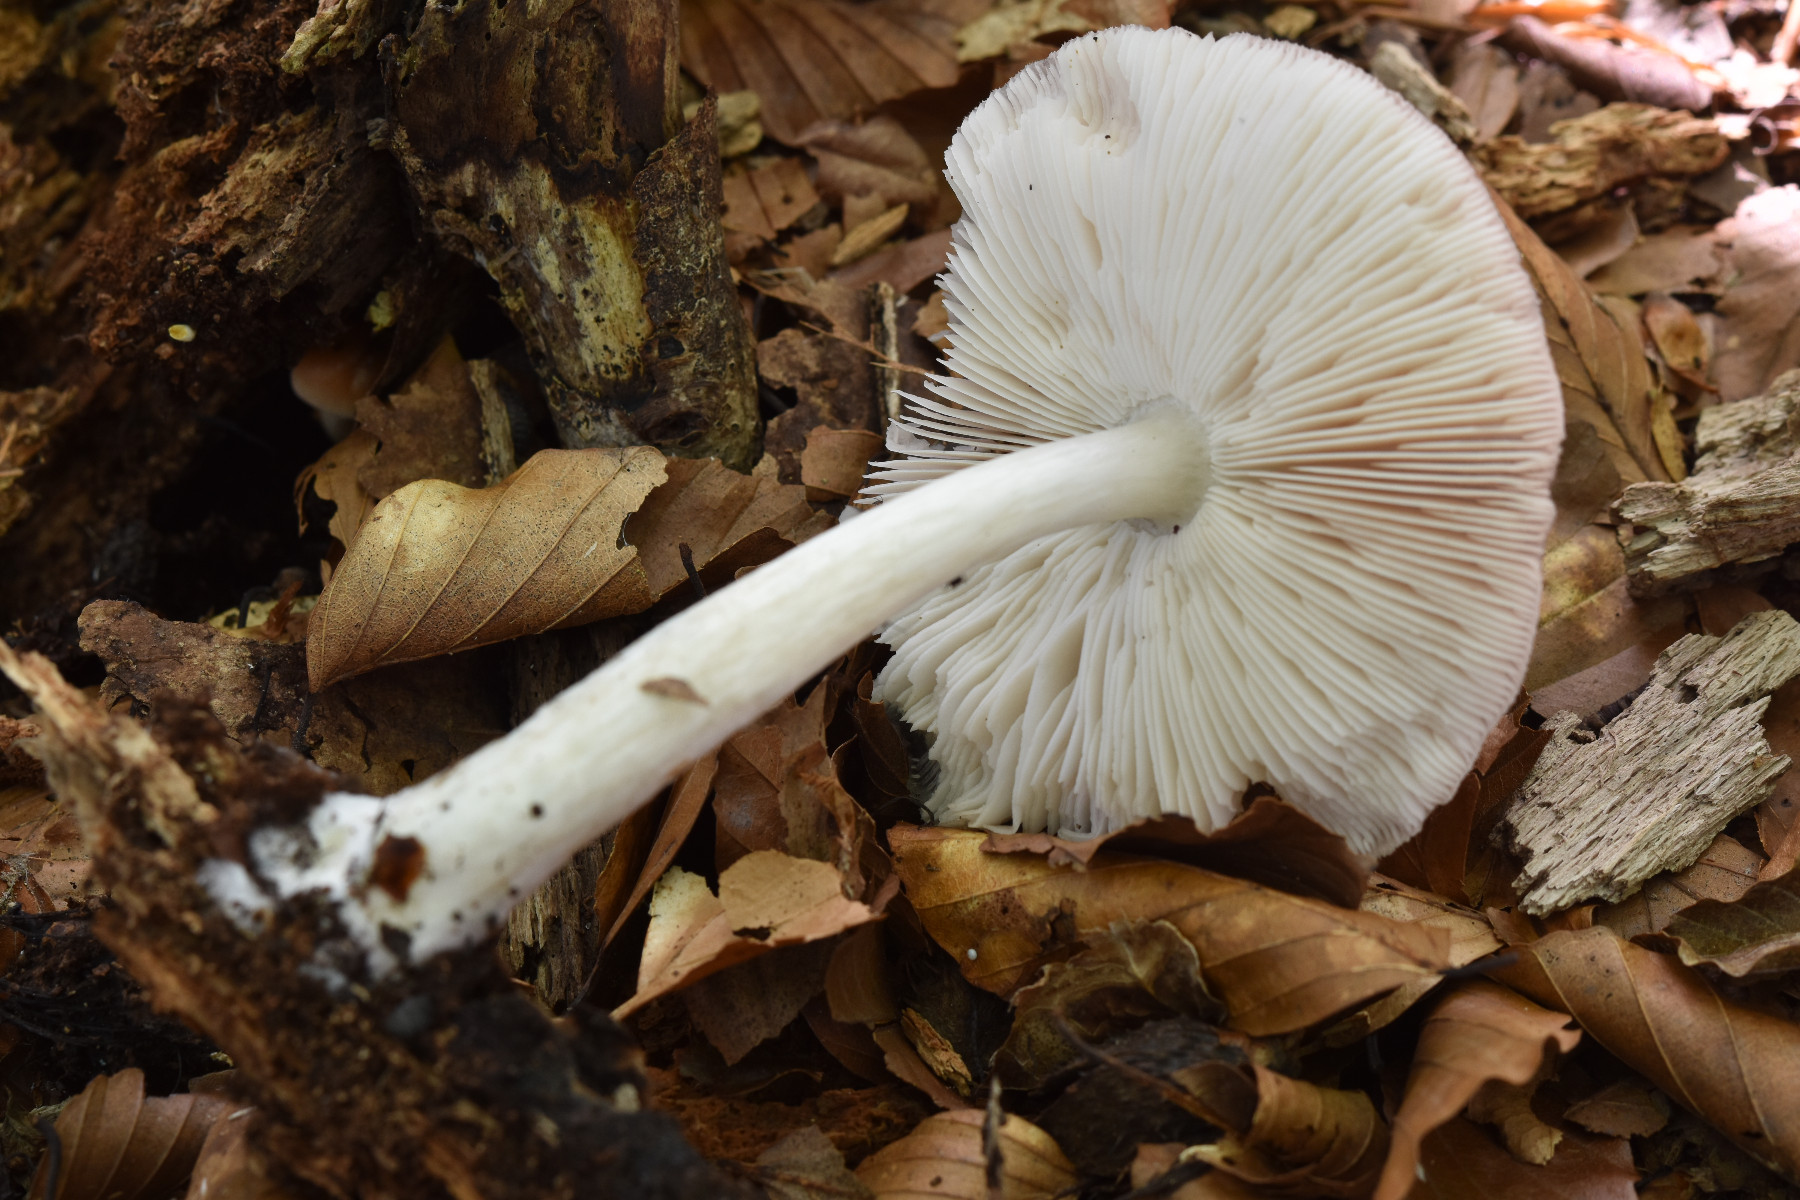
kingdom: Fungi
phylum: Basidiomycota
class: Agaricomycetes
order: Agaricales
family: Pluteaceae
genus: Pluteus
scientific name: Pluteus salicinus
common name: stiv skærmhat
